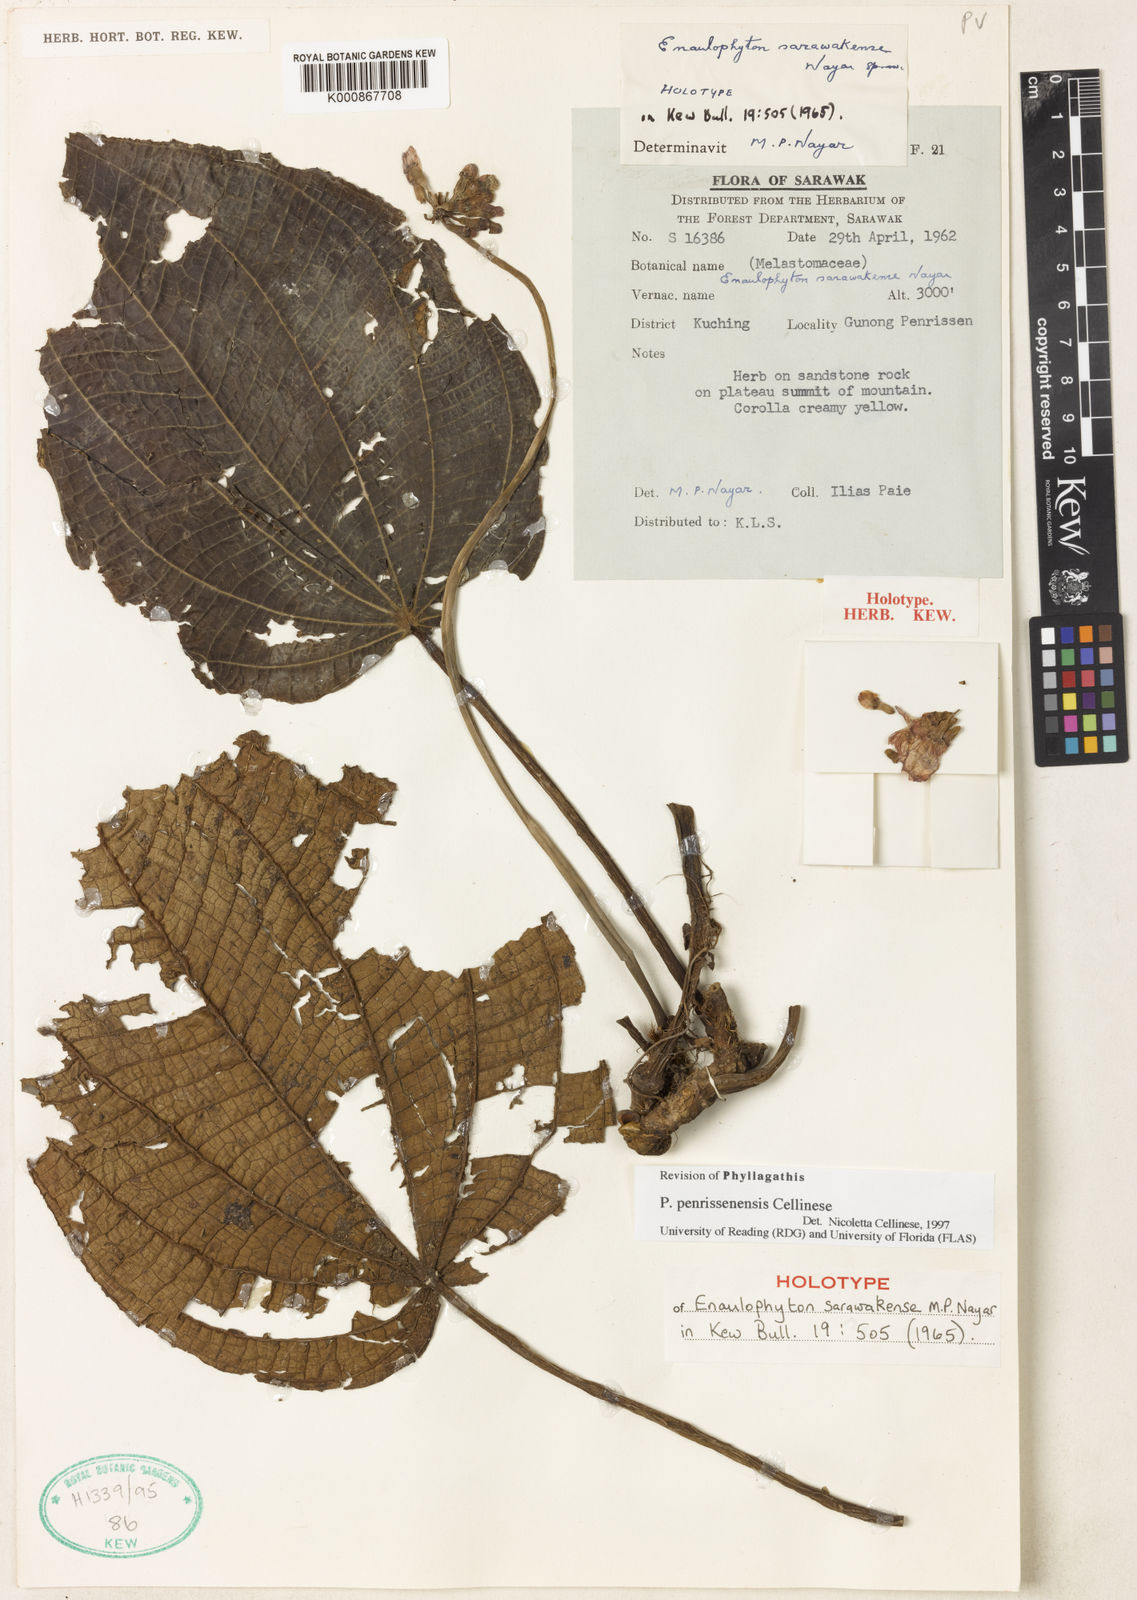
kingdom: Plantae
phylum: Tracheophyta
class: Magnoliopsida
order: Myrtales
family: Melastomataceae
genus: Enaulophyton
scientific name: Enaulophyton sarawakense
